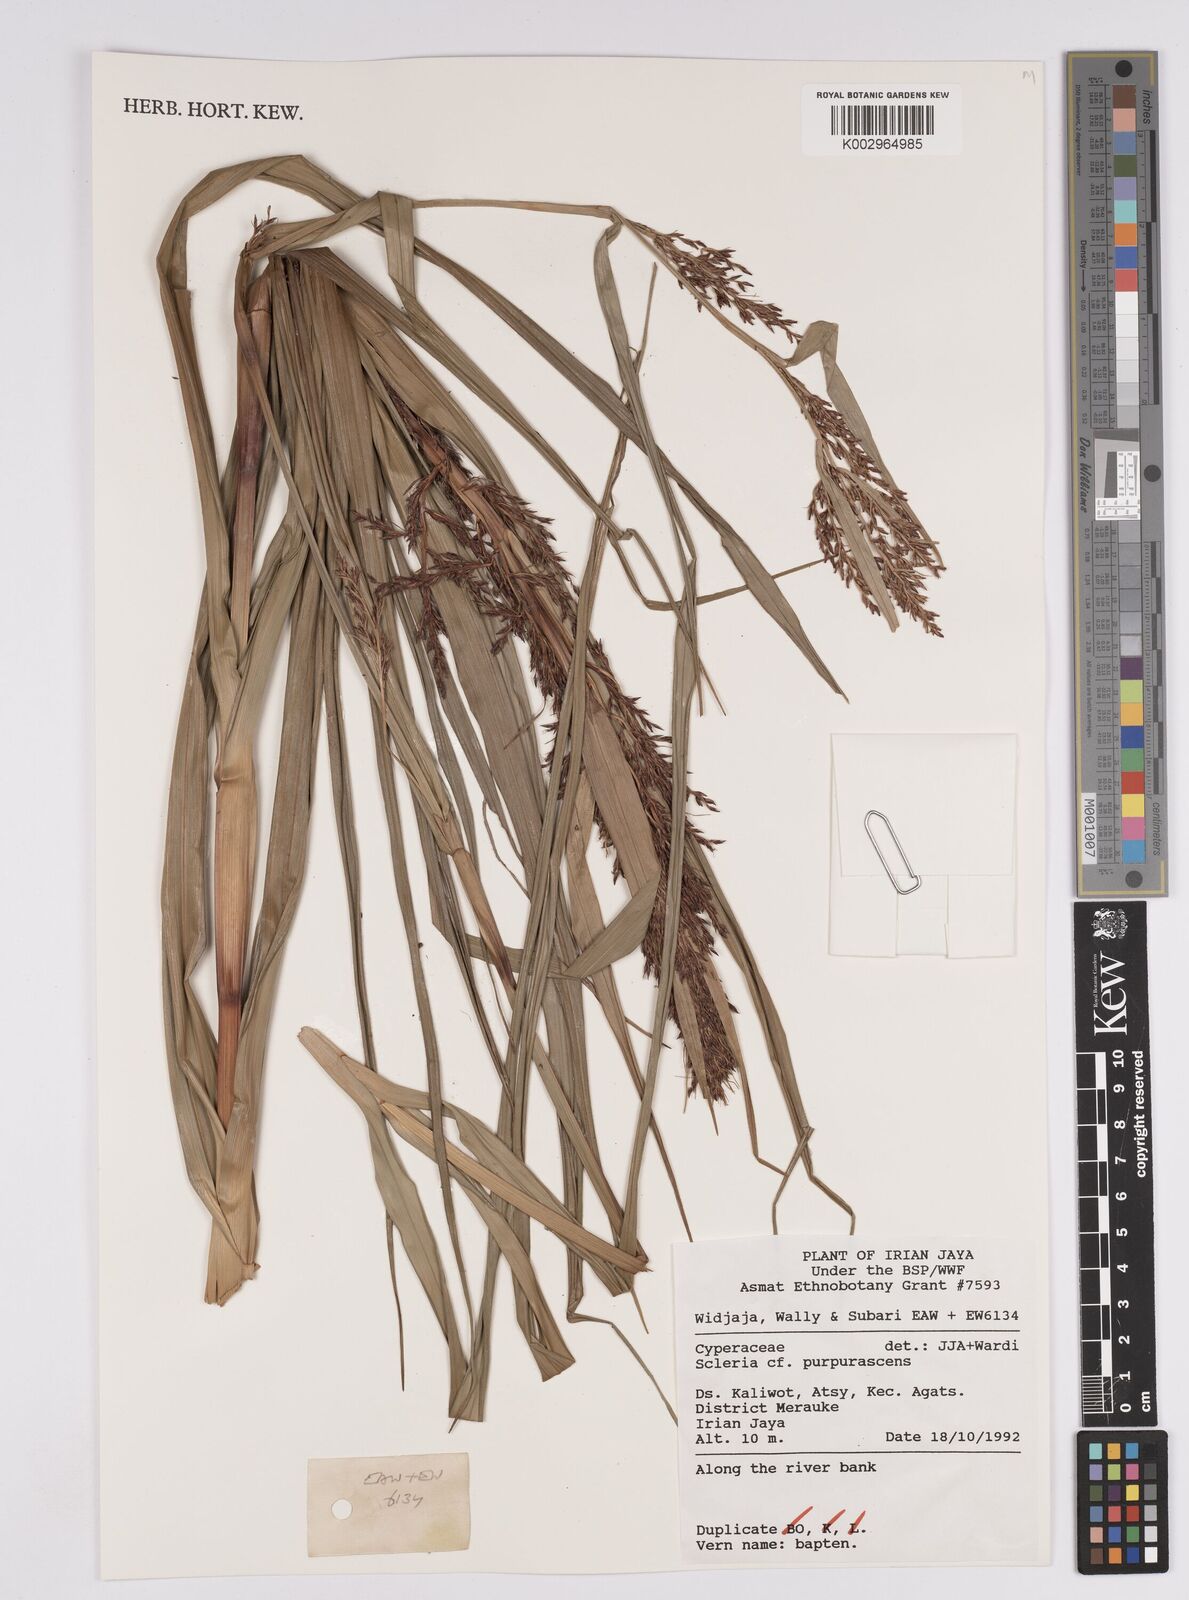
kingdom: Plantae
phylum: Tracheophyta
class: Liliopsida
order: Poales
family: Cyperaceae
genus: Scleria
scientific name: Scleria
